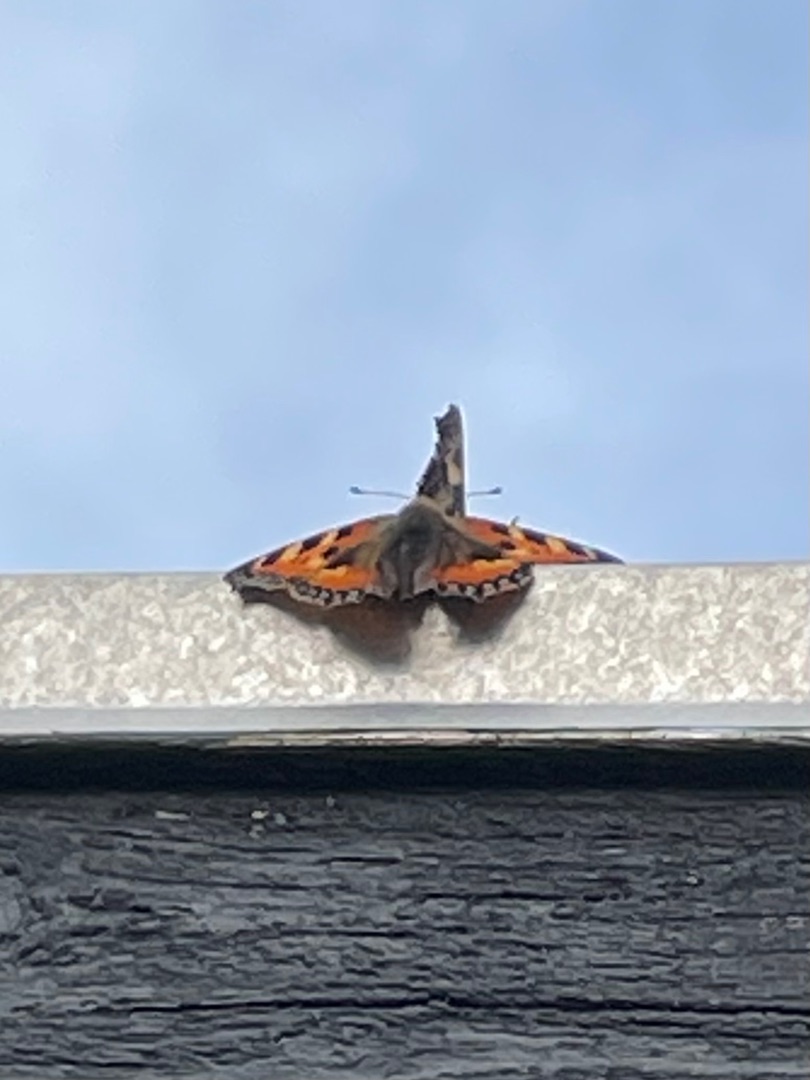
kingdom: Animalia
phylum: Arthropoda
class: Insecta
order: Lepidoptera
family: Nymphalidae
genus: Aglais
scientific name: Aglais urticae
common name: Nældens takvinge
